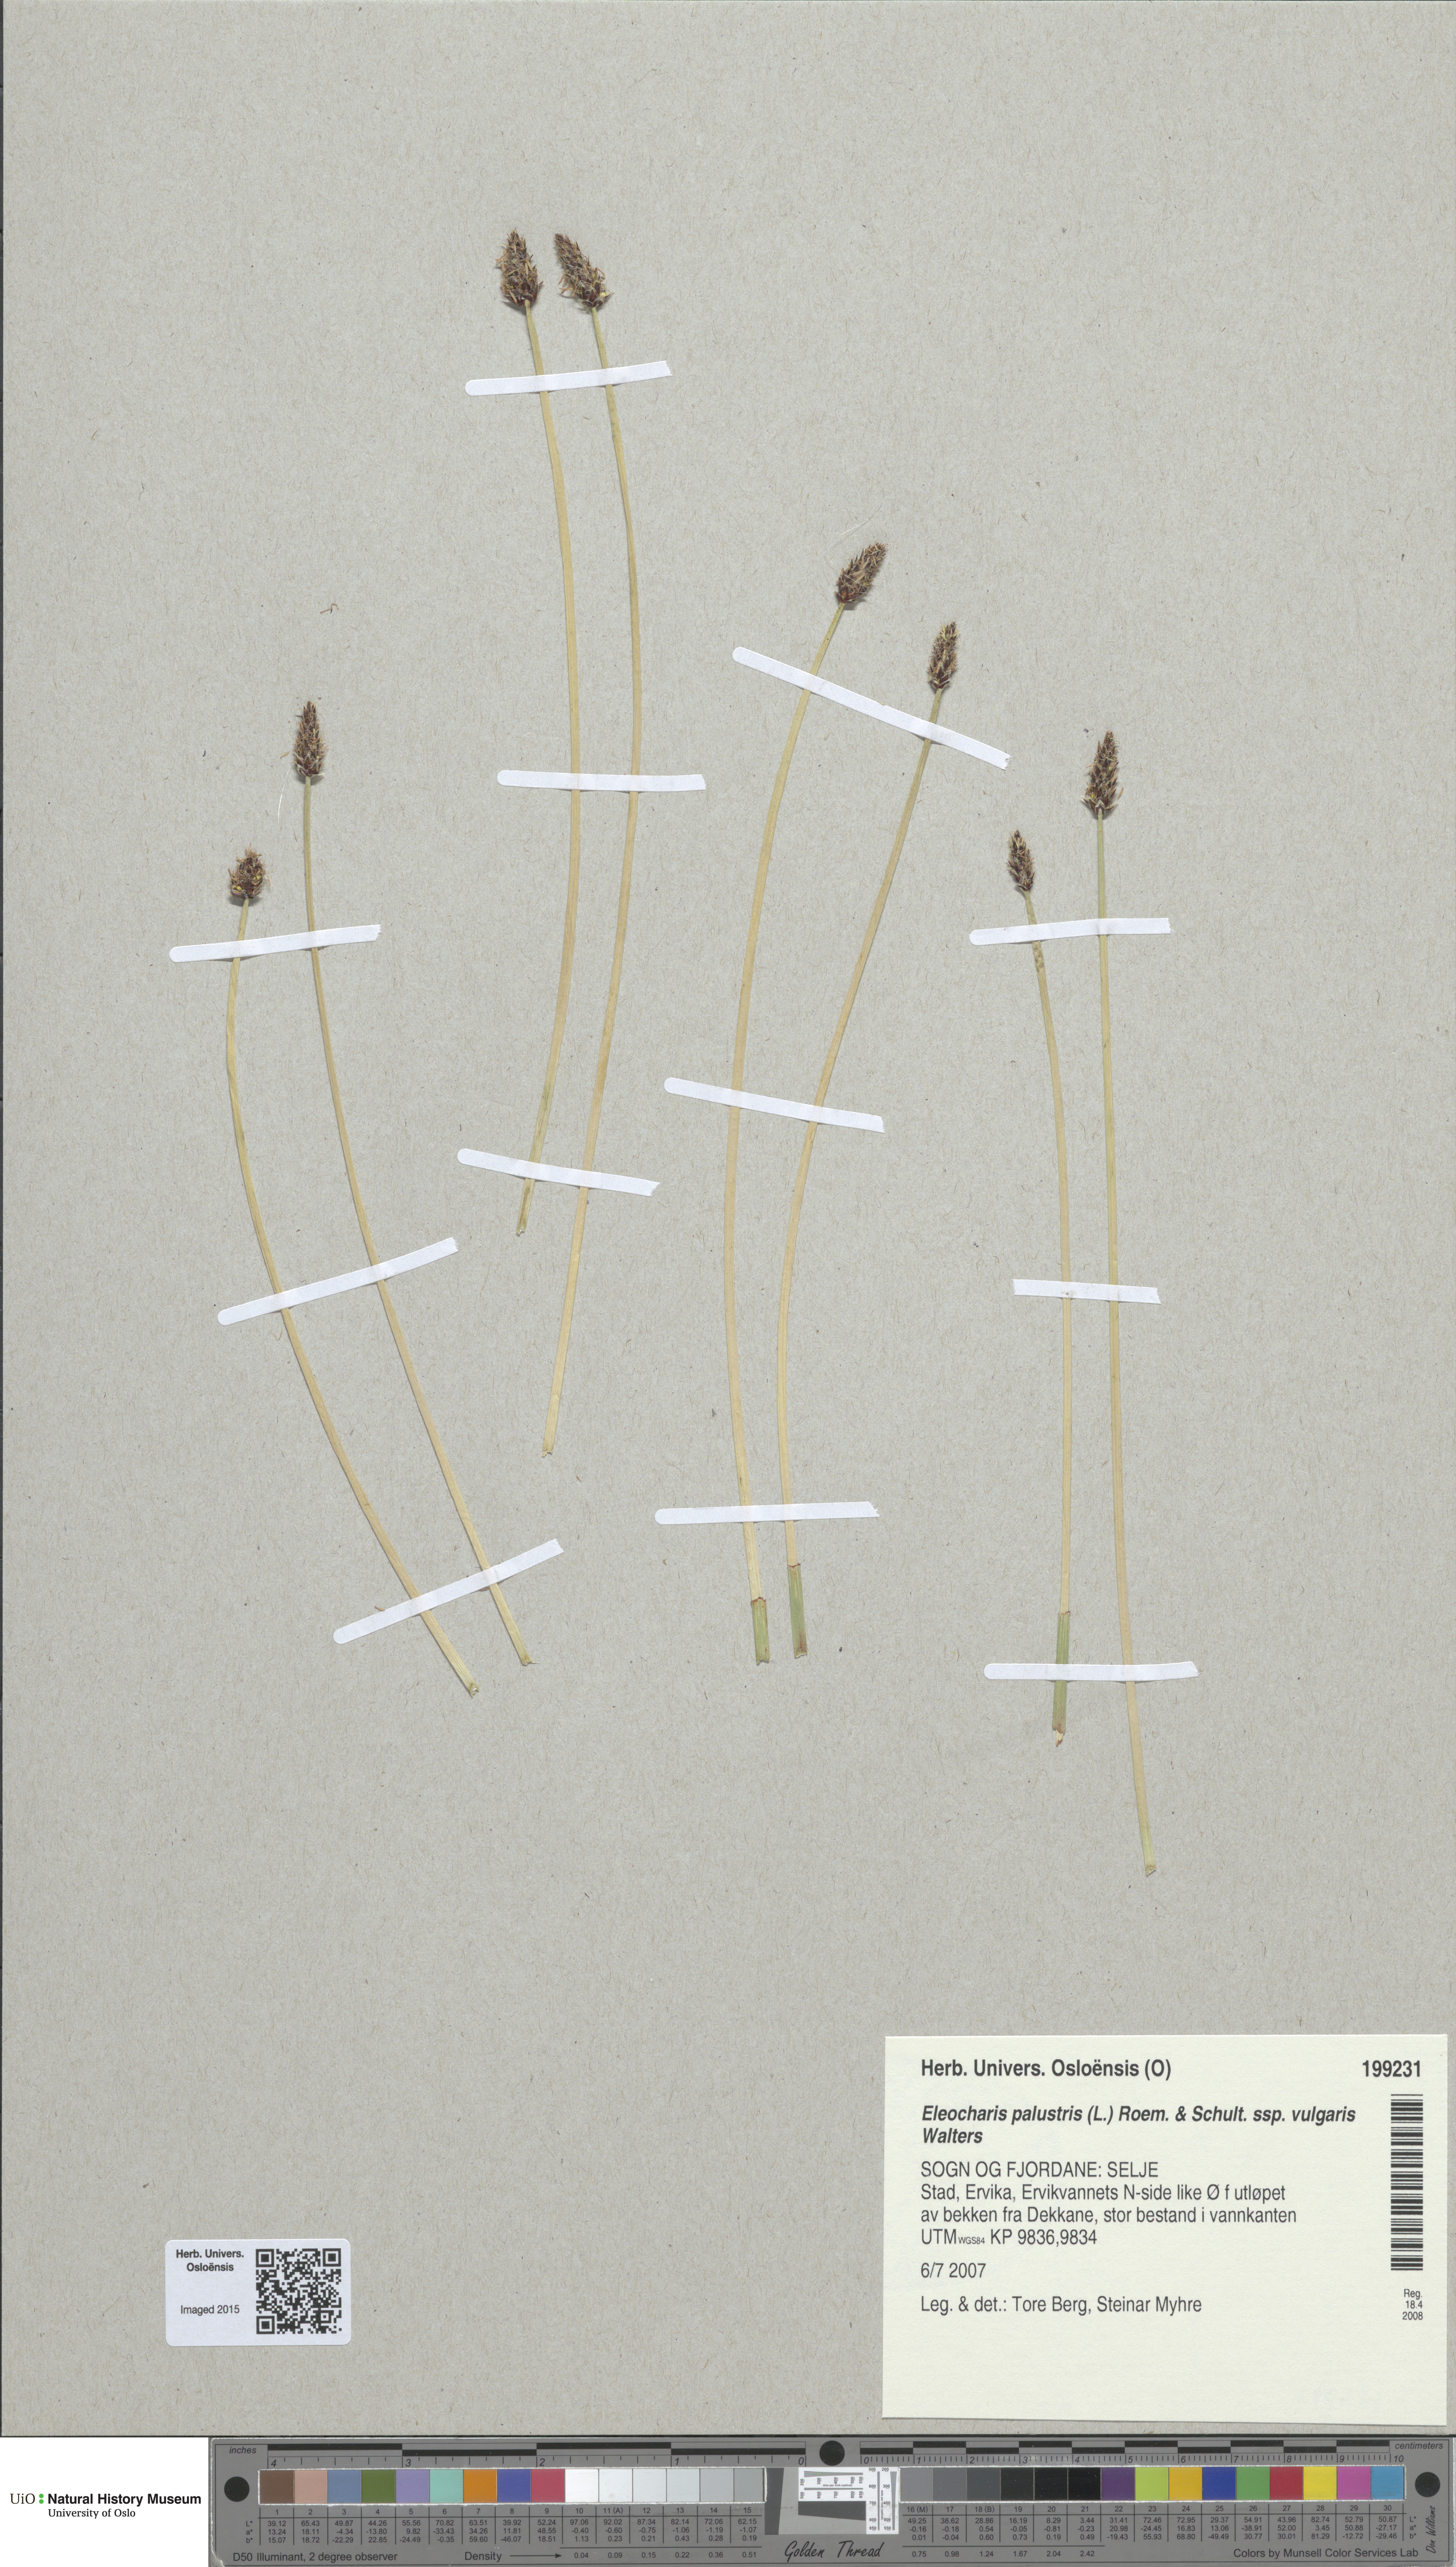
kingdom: Plantae
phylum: Tracheophyta
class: Liliopsida
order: Poales
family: Cyperaceae
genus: Eleocharis
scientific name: Eleocharis palustris
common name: Common spike-rush
